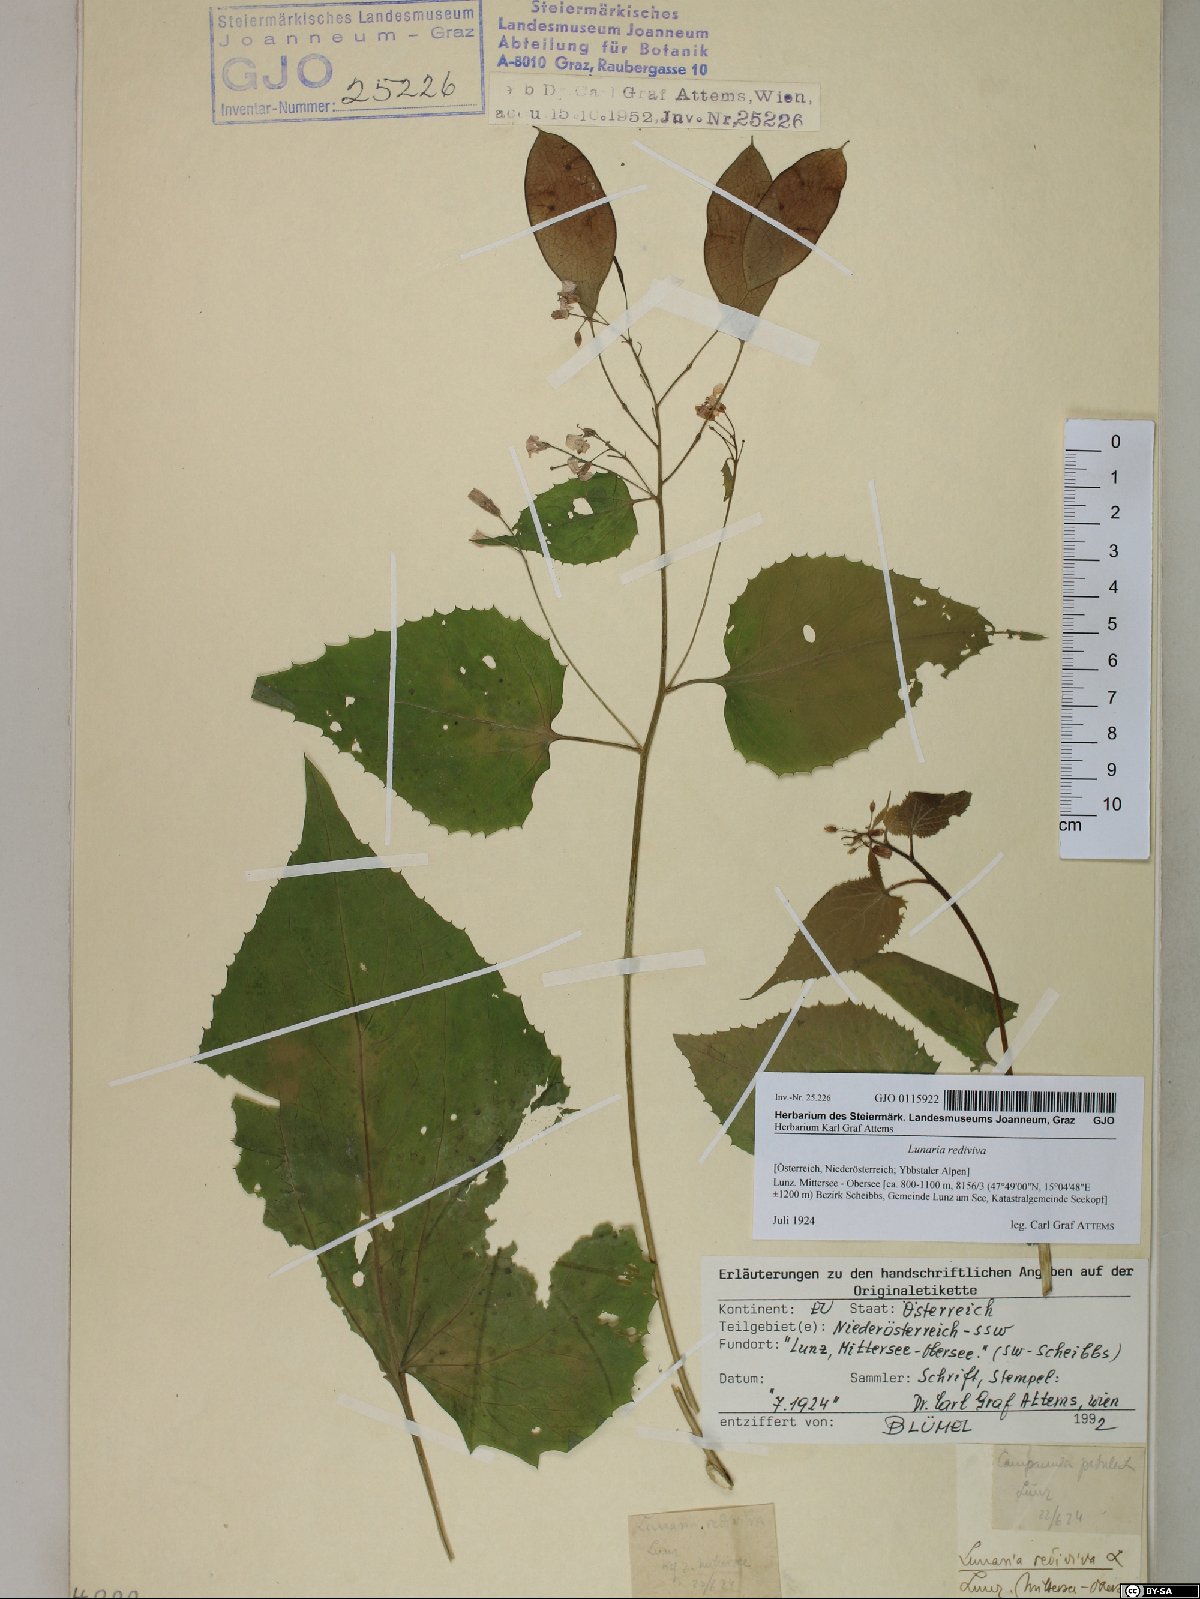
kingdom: Plantae
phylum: Tracheophyta
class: Magnoliopsida
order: Brassicales
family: Brassicaceae
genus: Lunaria
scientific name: Lunaria rediviva
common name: Perennial honesty
